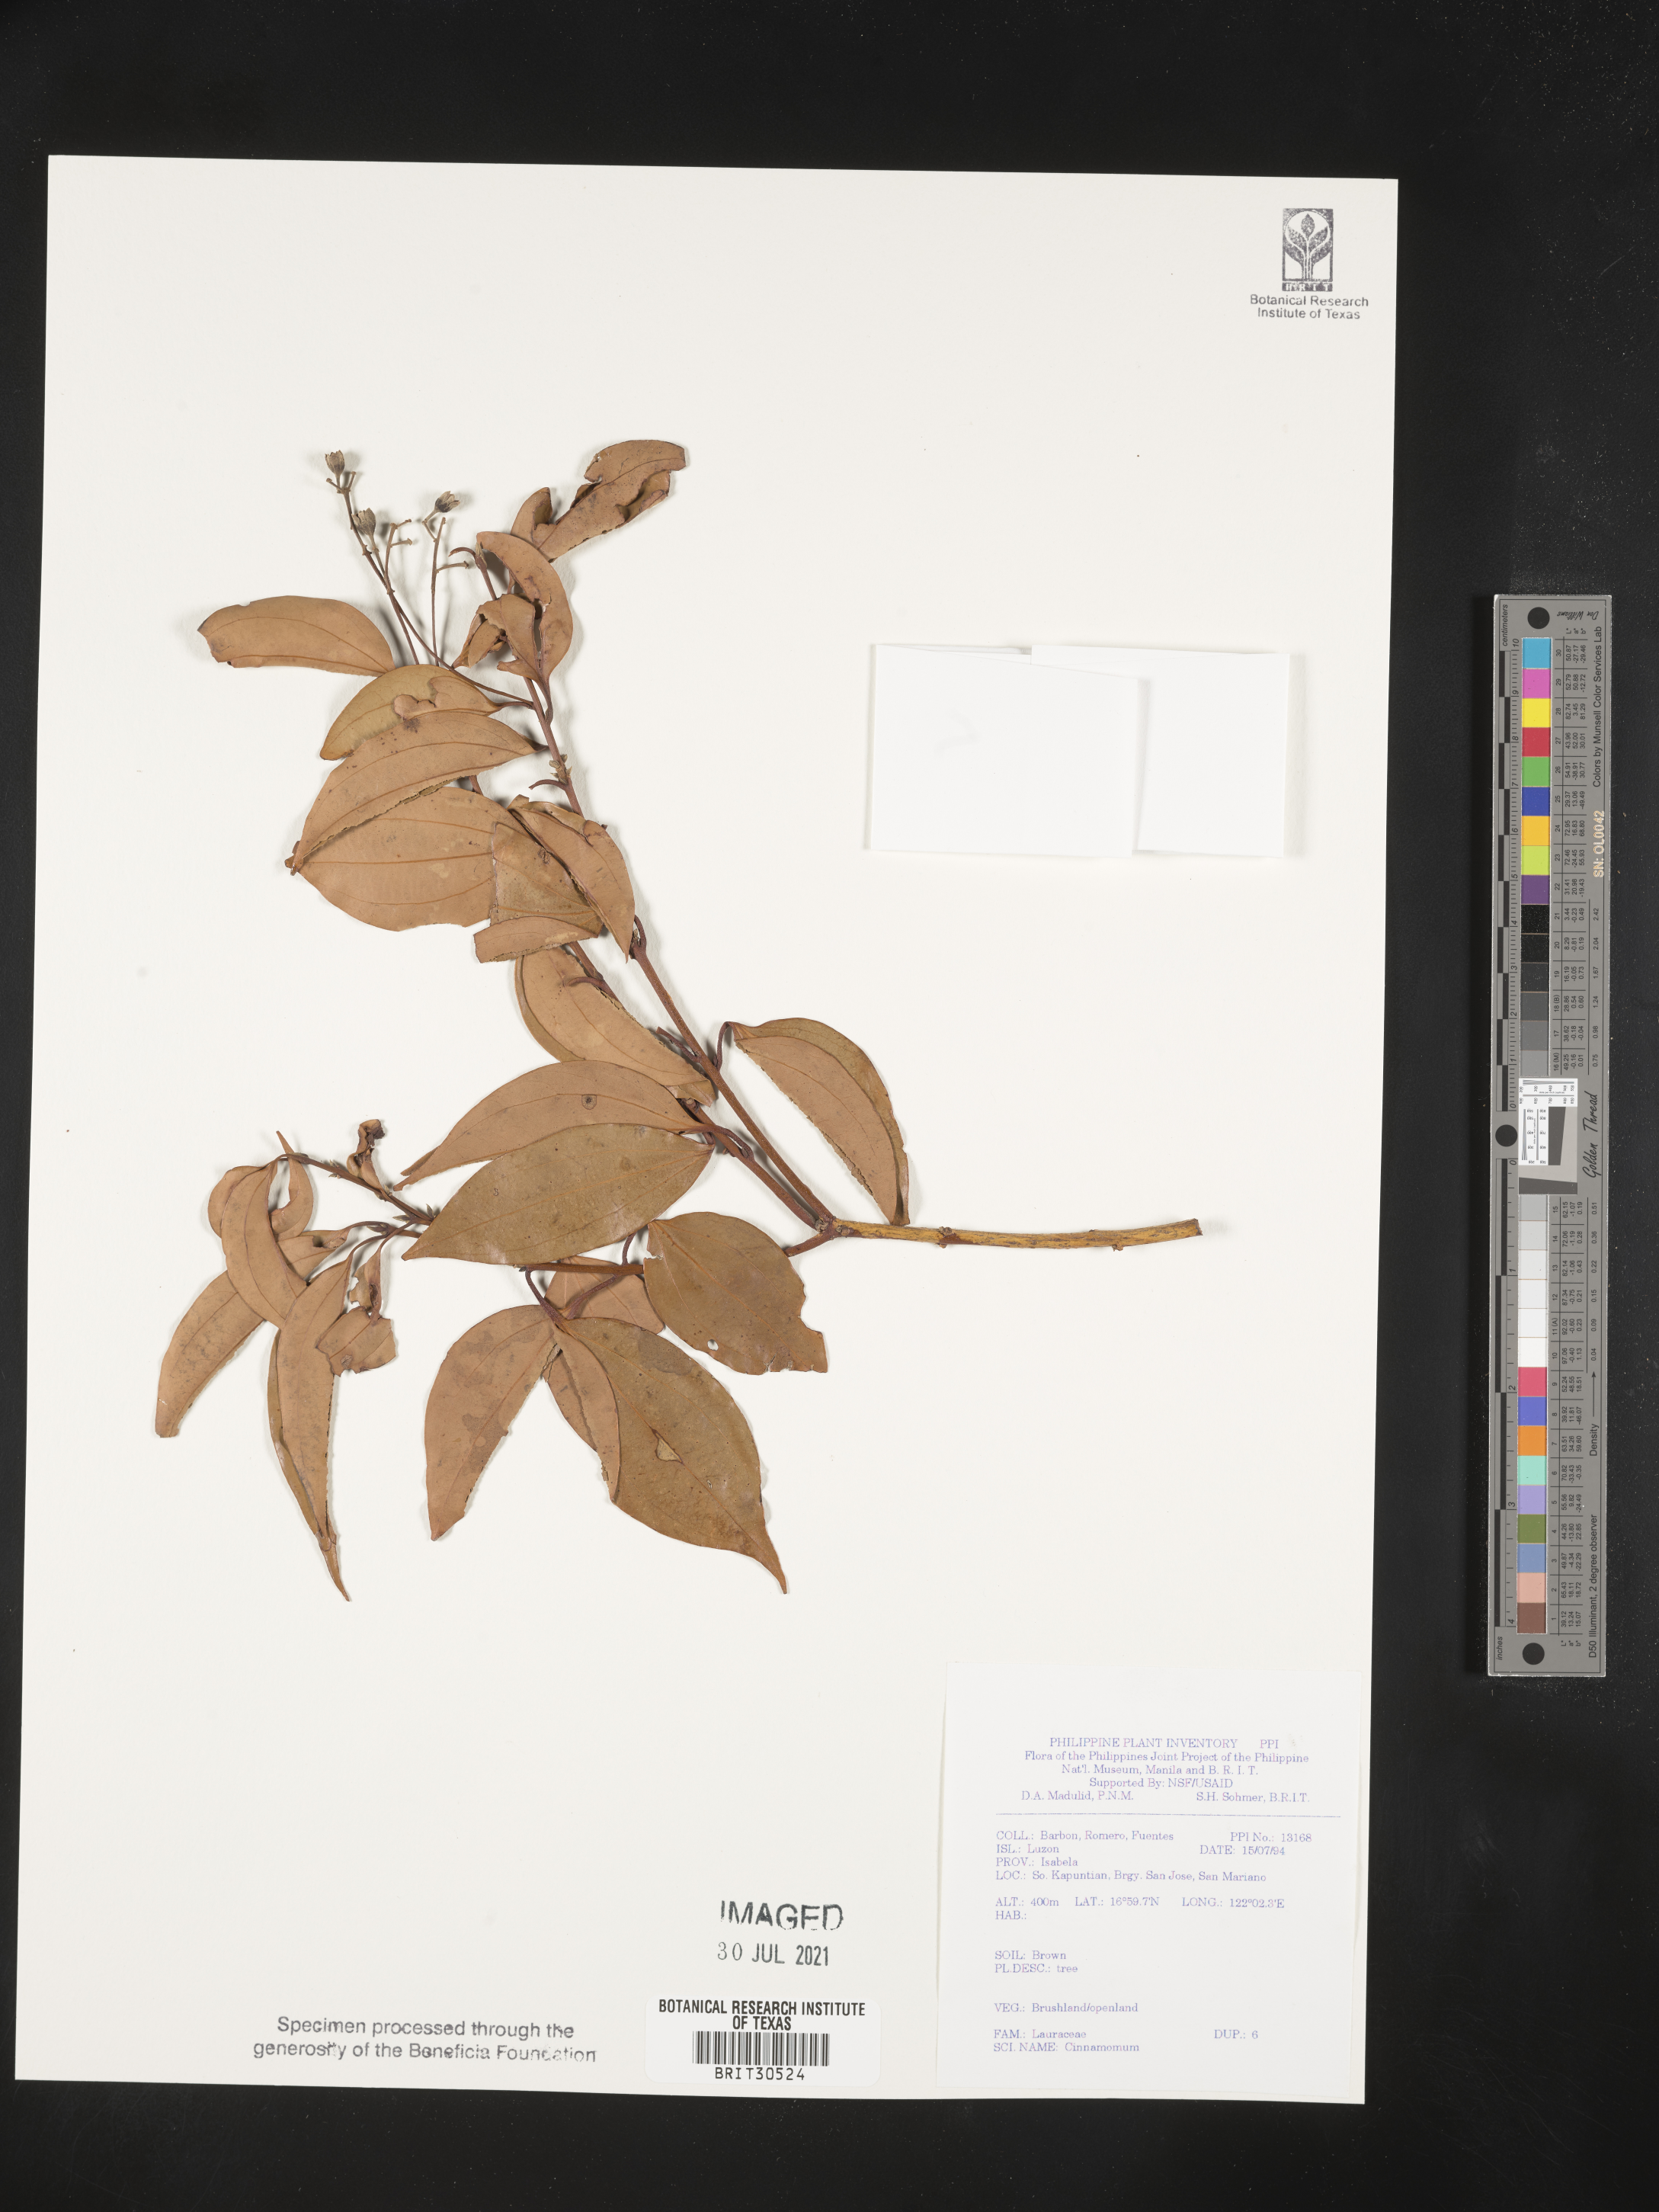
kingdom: Plantae
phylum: Tracheophyta
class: Magnoliopsida
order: Laurales
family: Lauraceae
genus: Cinnamomum
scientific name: Cinnamomum
